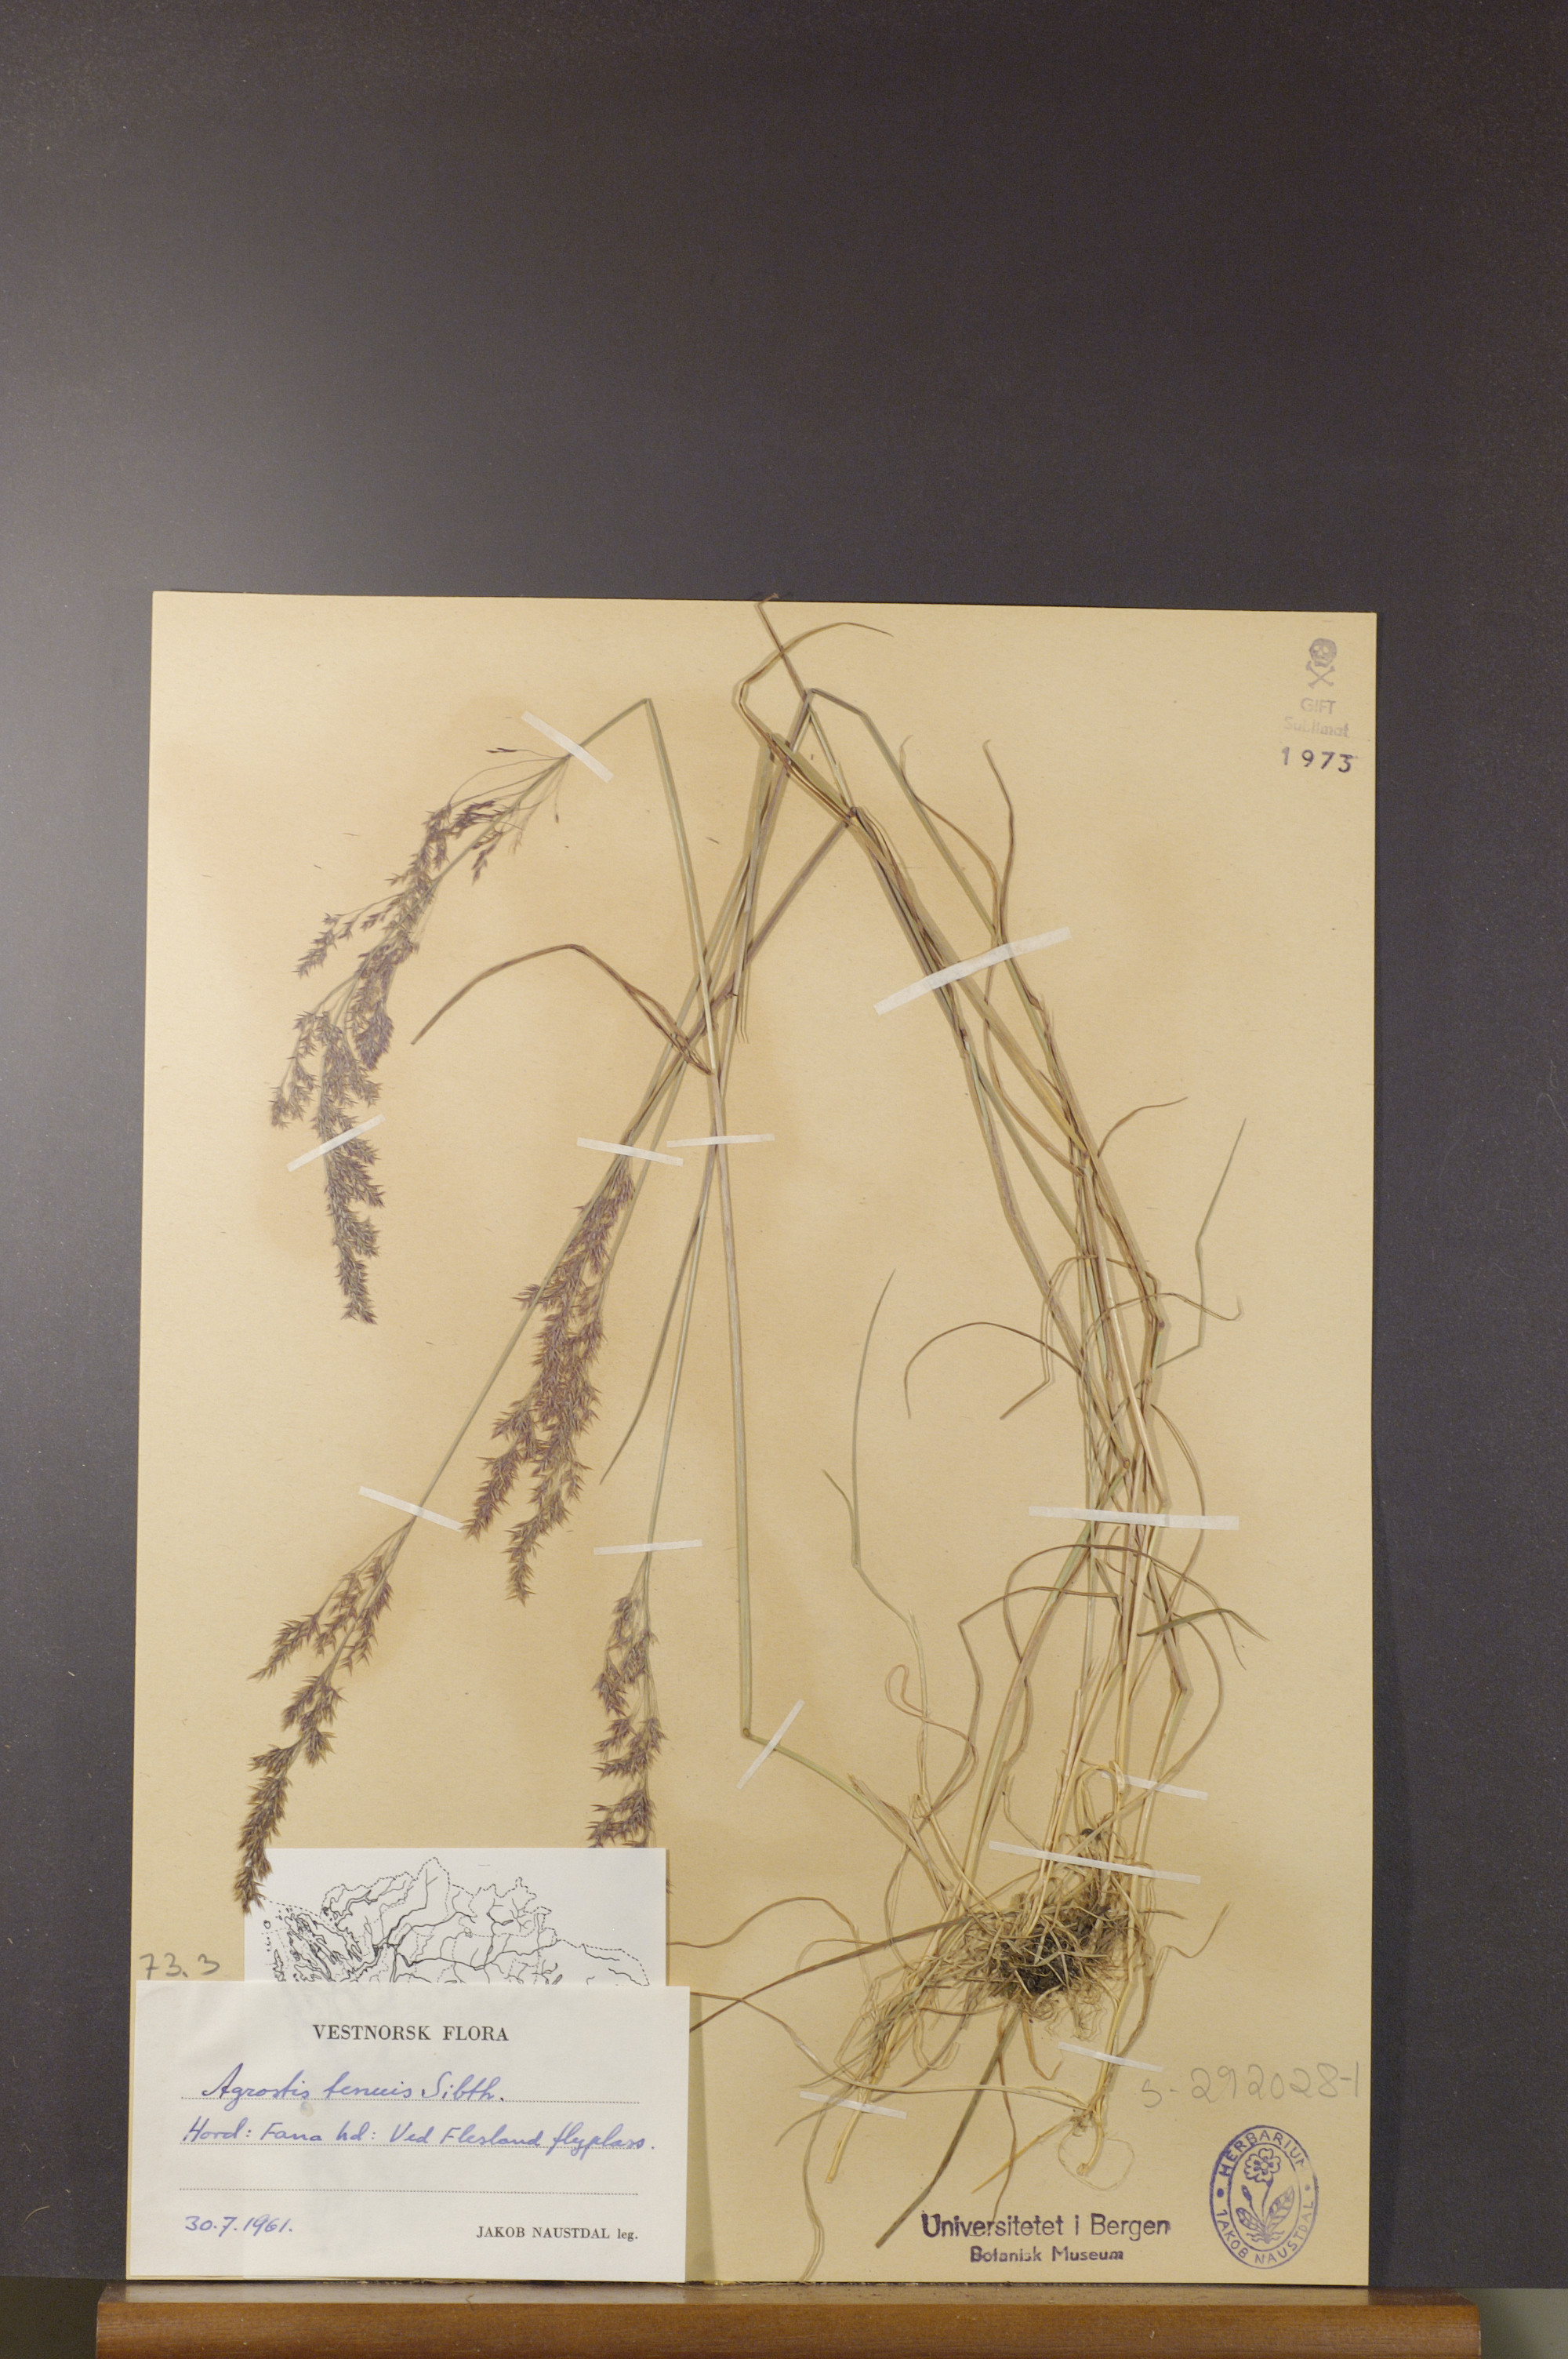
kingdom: Plantae
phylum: Tracheophyta
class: Liliopsida
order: Poales
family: Poaceae
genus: Agrostis
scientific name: Agrostis capillaris
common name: Colonial bentgrass
